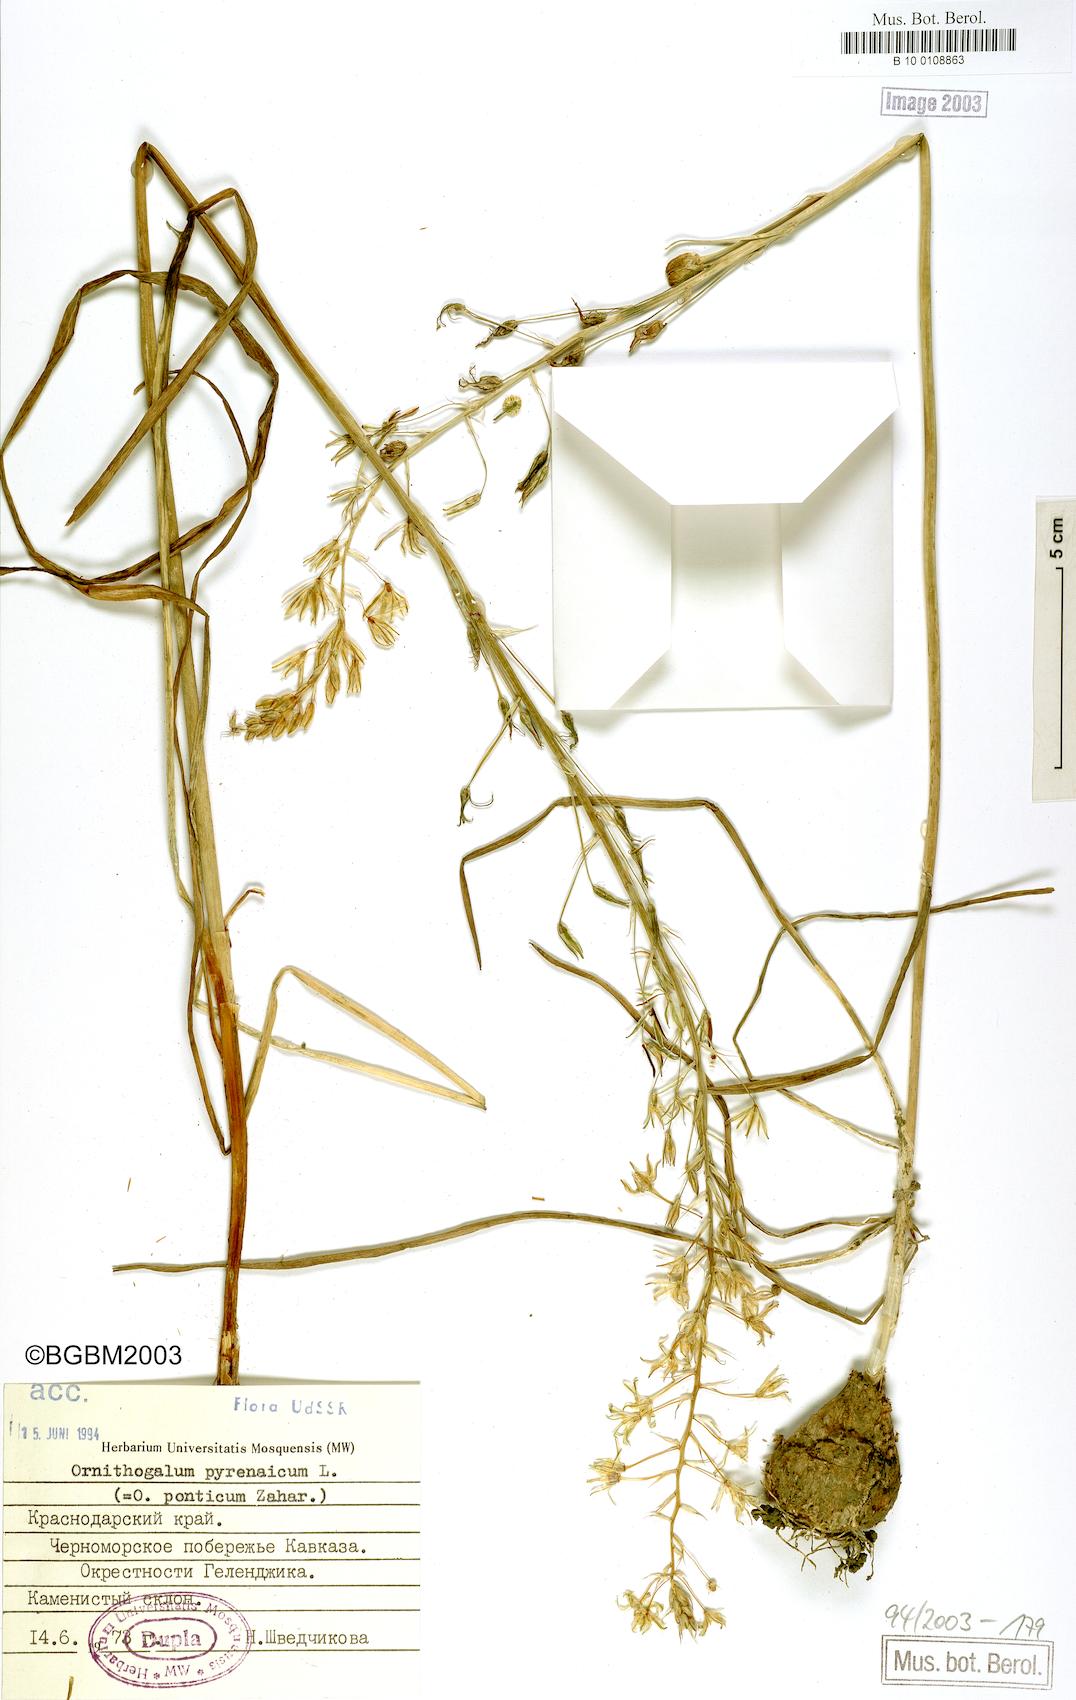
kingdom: Plantae
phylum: Tracheophyta
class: Liliopsida
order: Asparagales
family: Asparagaceae
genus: Ornithogalum
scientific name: Ornithogalum pyrenaicum
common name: Spiked star-of-bethlehem
